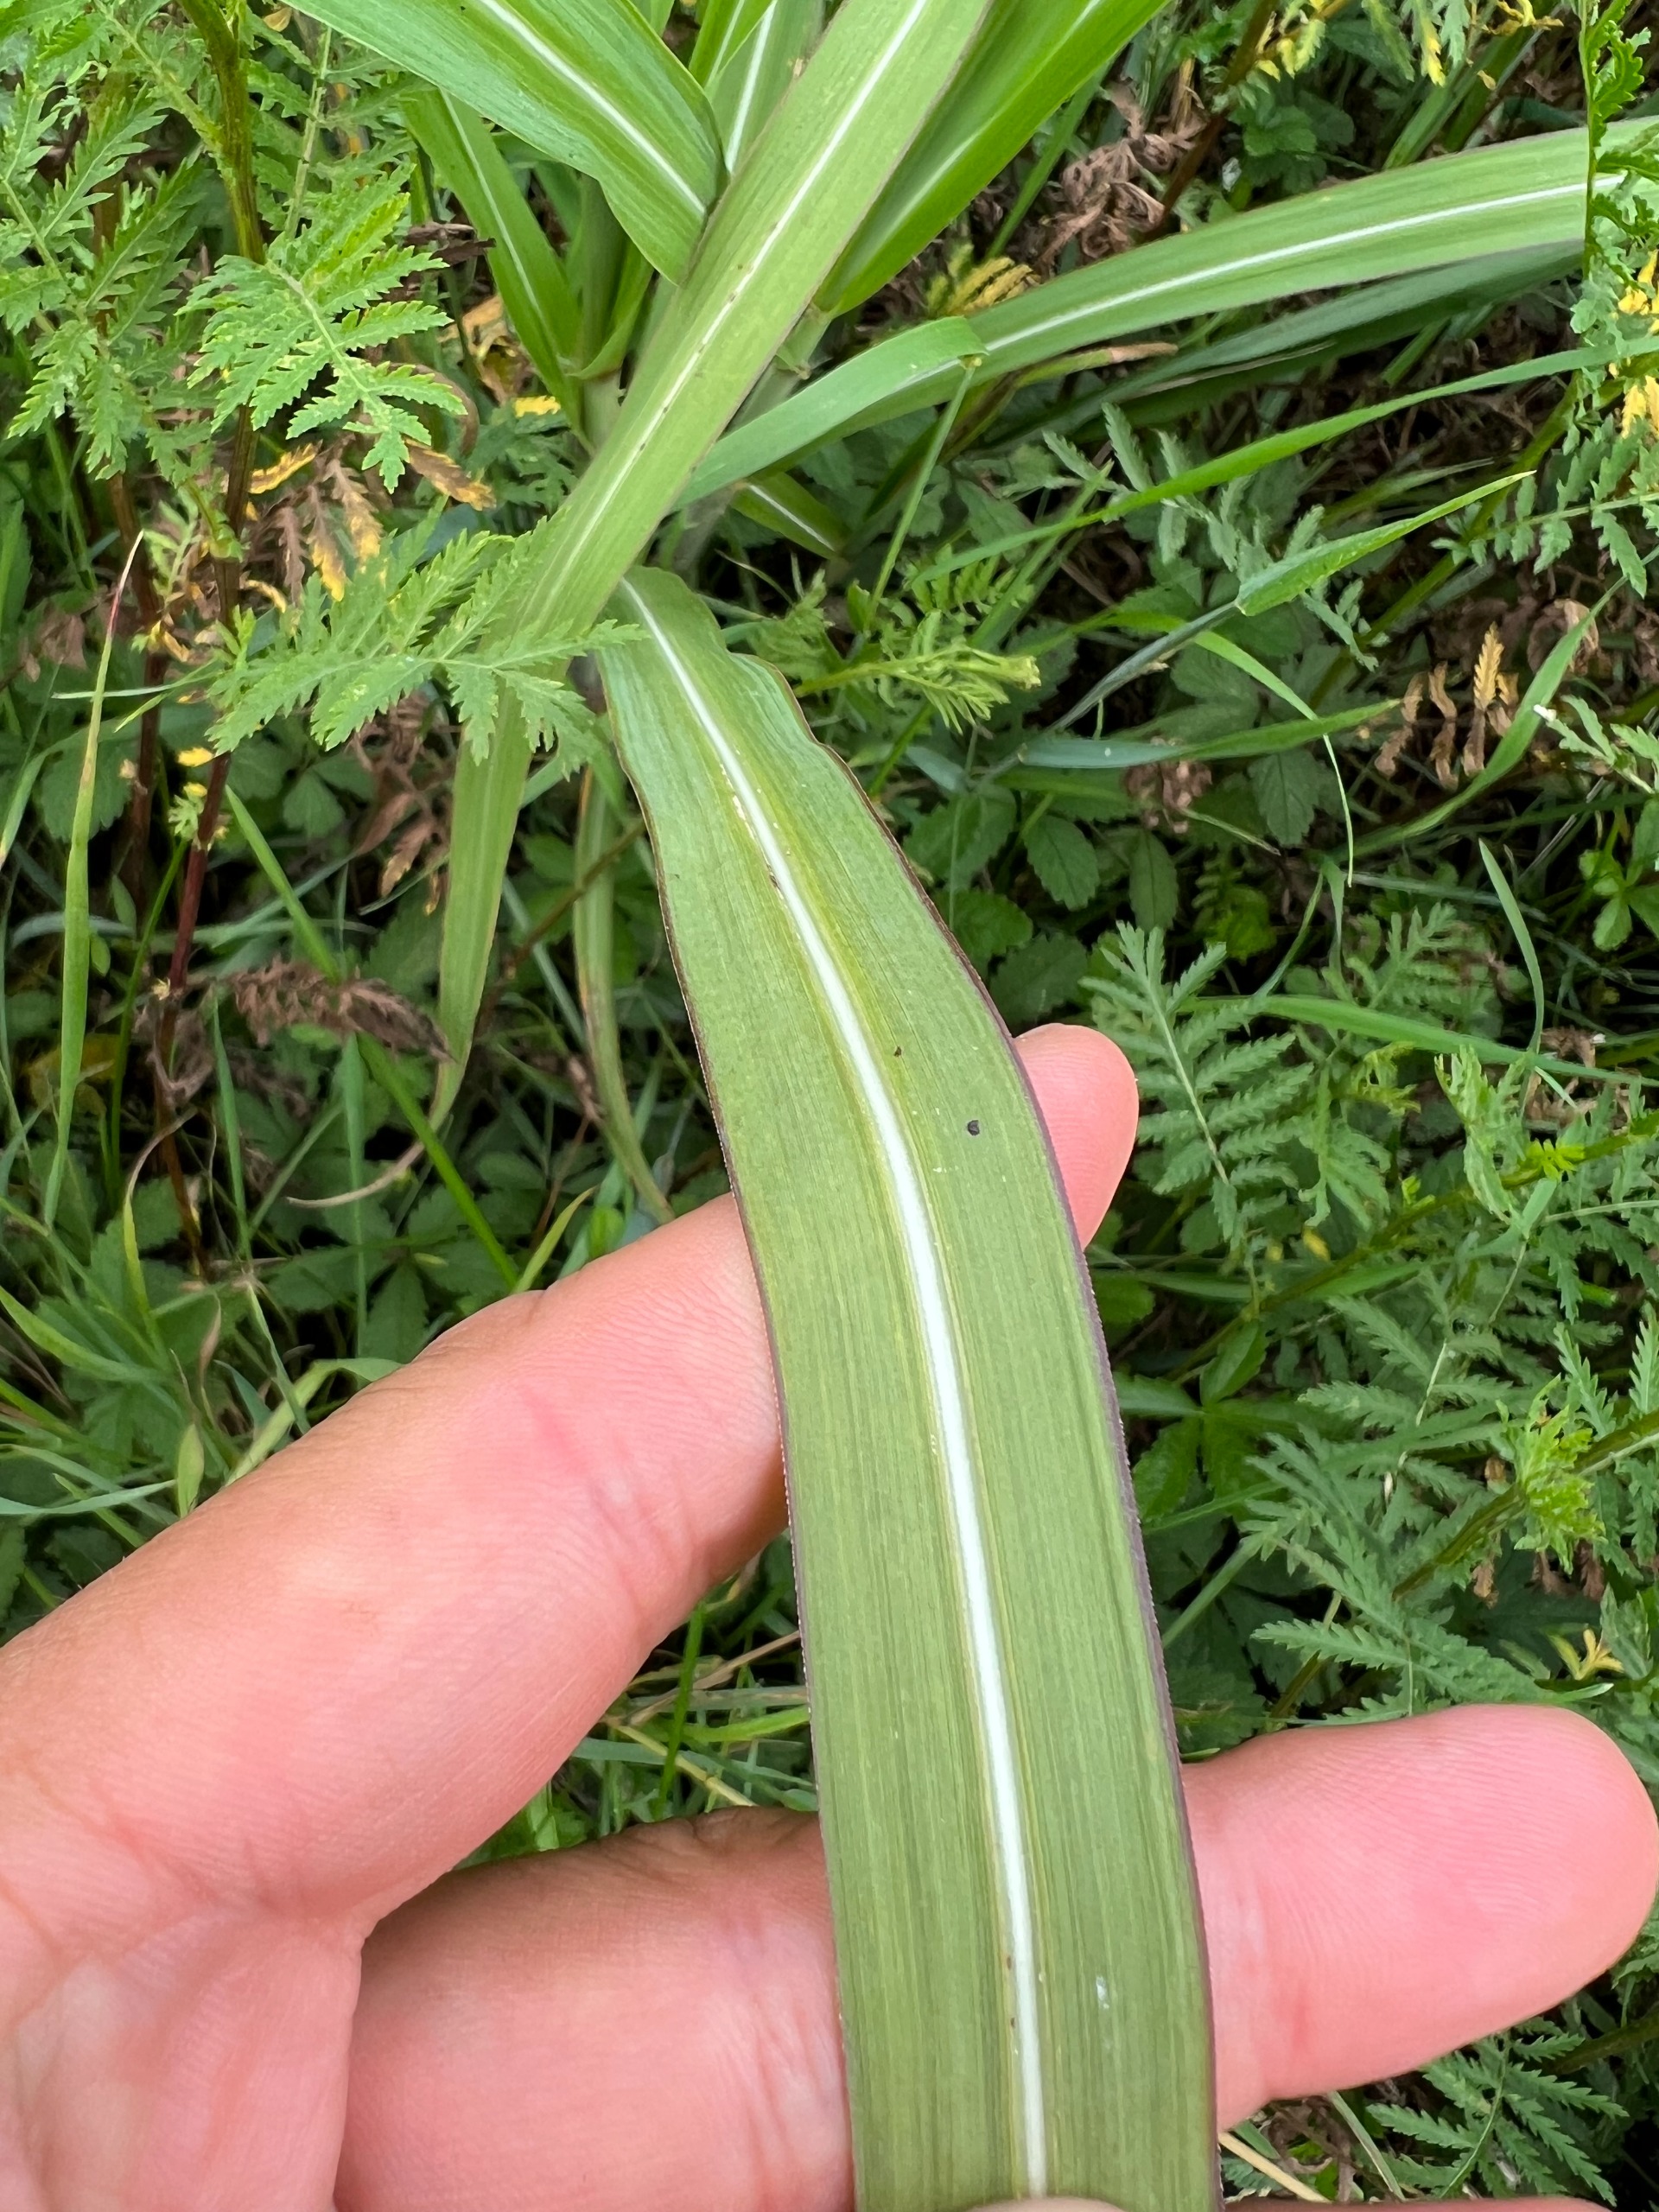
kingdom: Plantae
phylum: Tracheophyta
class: Liliopsida
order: Poales
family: Poaceae
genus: Miscanthus
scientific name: Miscanthus sinensis
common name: Elefantgræs
